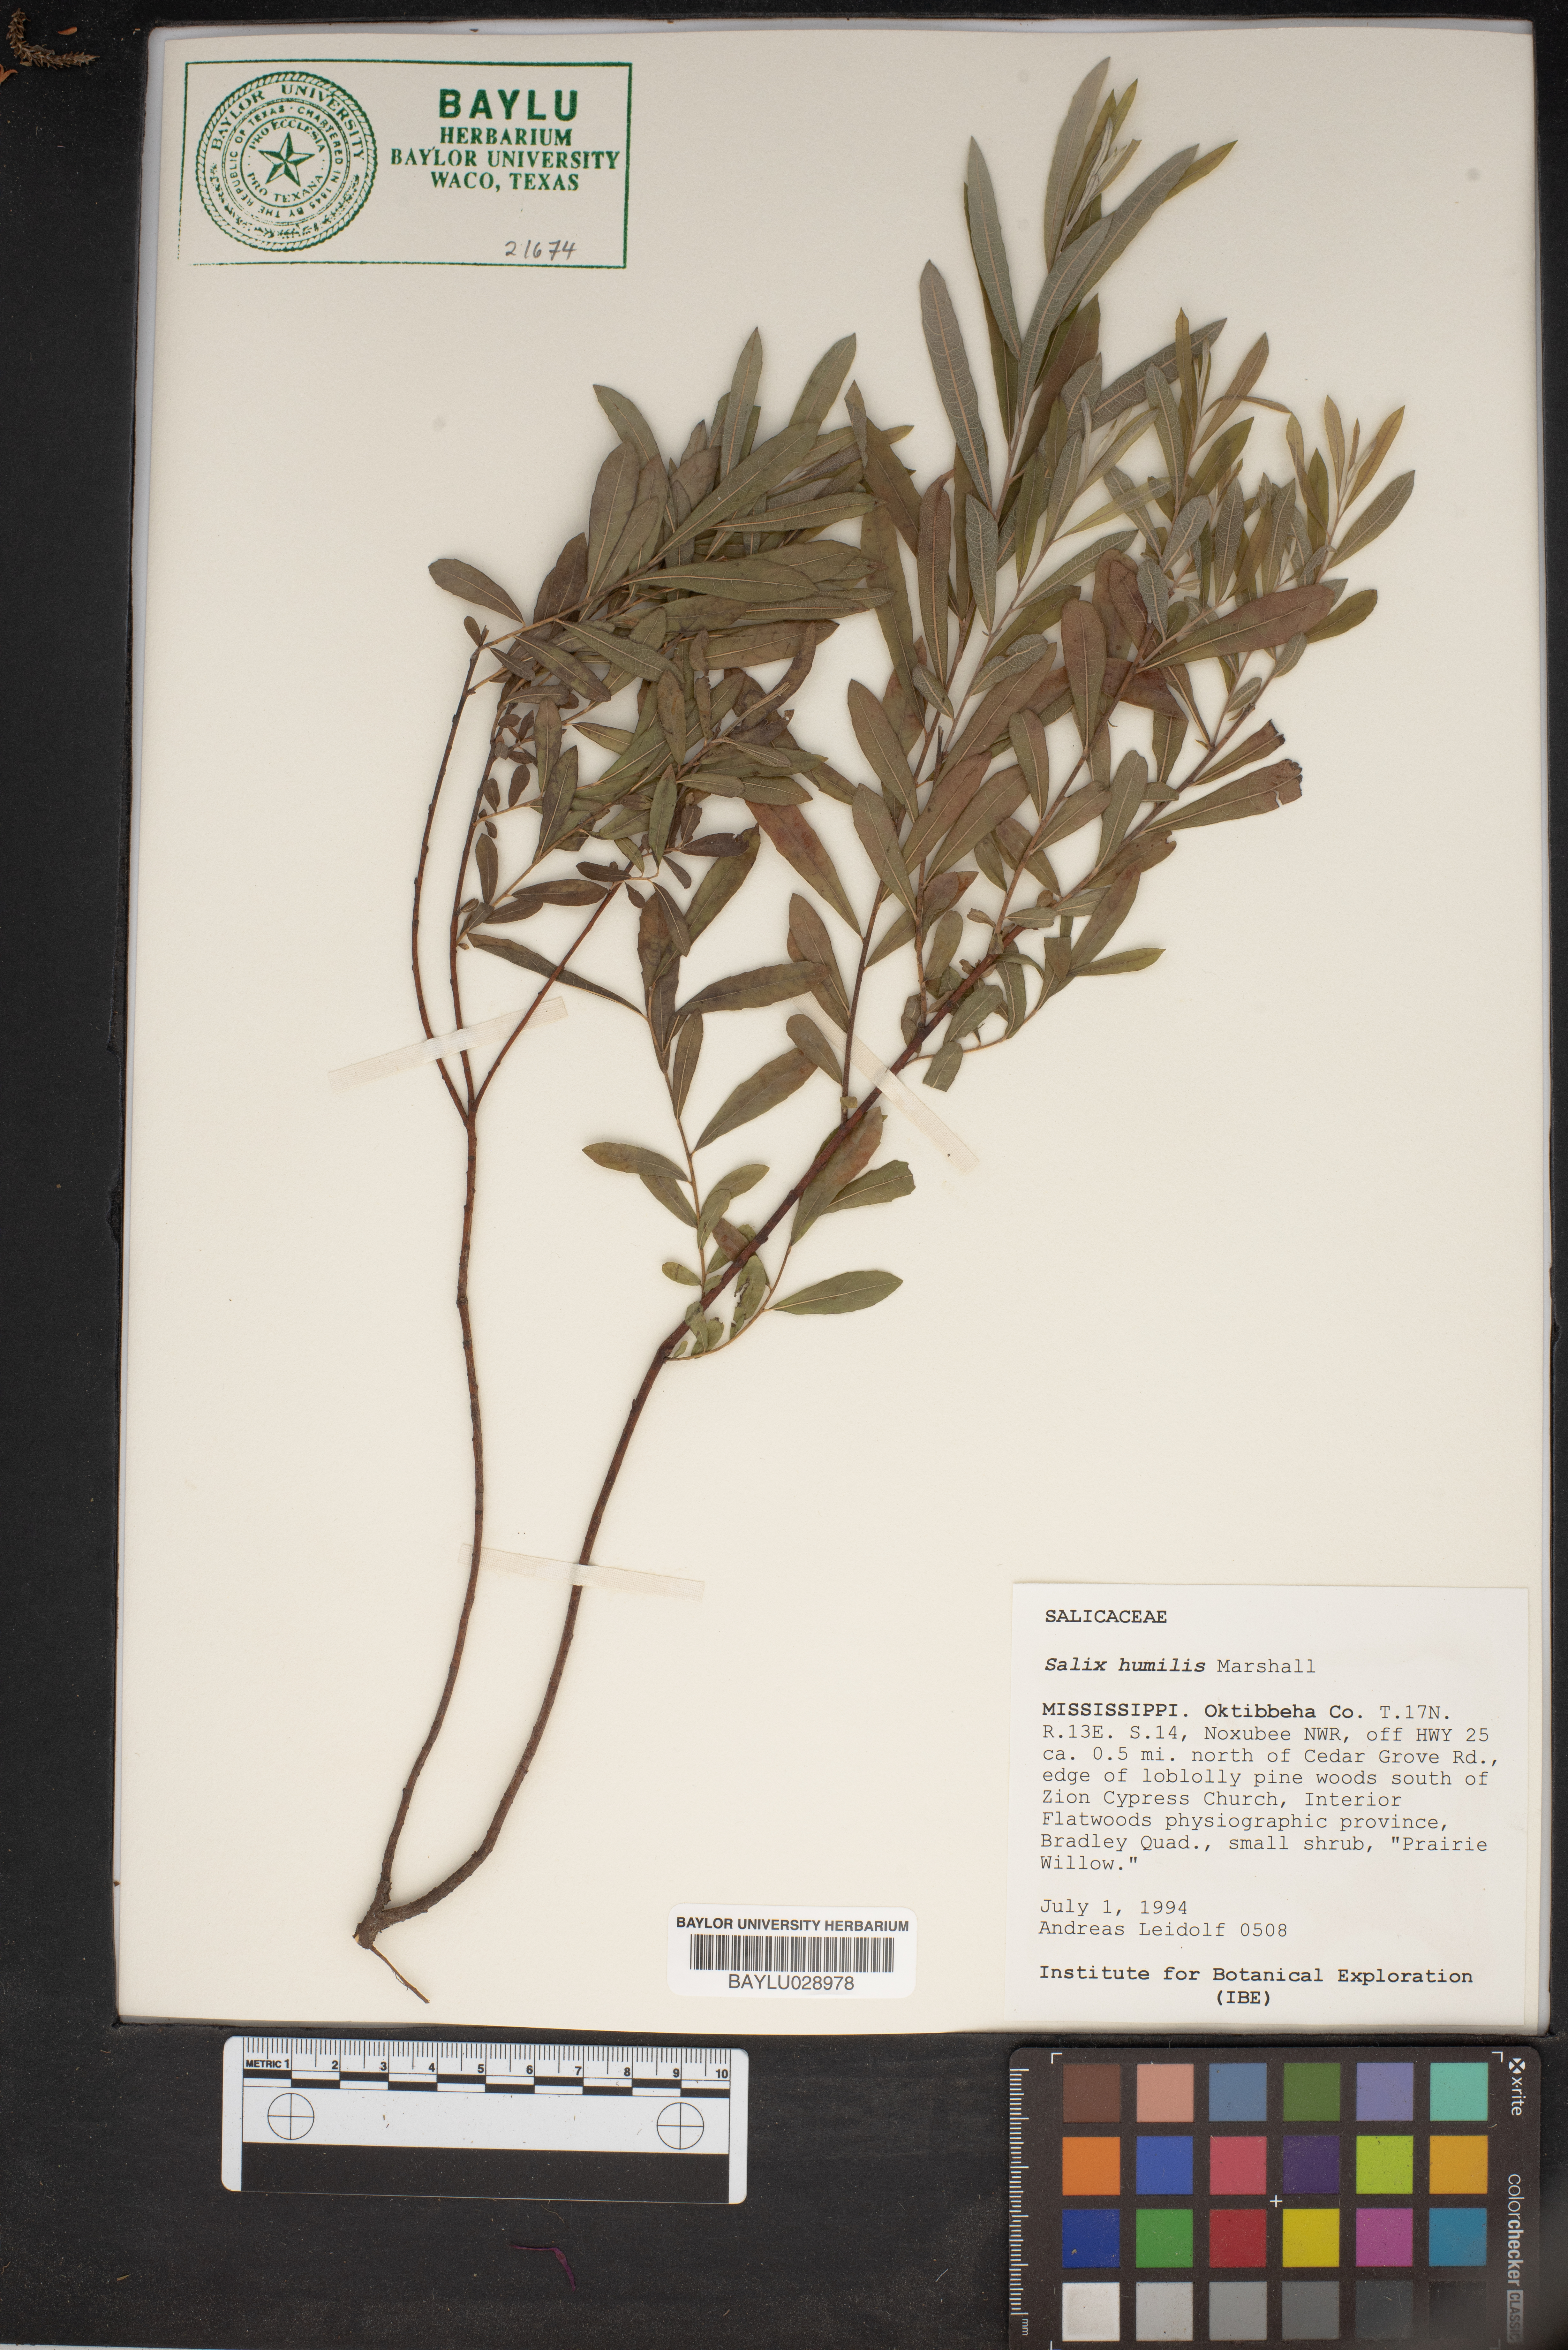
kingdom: Plantae
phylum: Tracheophyta
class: Magnoliopsida
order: Malpighiales
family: Salicaceae
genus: Salix
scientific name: Salix humilis
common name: Prairie willow
